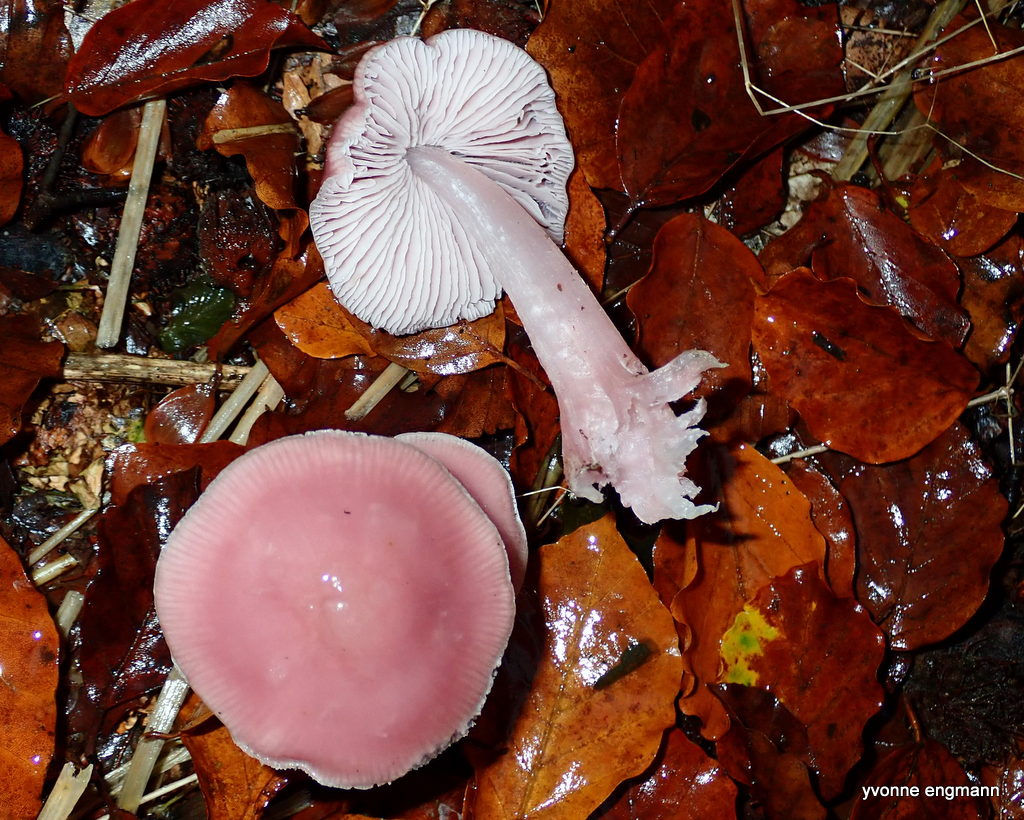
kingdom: Fungi
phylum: Basidiomycota
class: Agaricomycetes
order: Agaricales
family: Mycenaceae
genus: Mycena
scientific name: Mycena rosea
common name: rosa huesvamp
